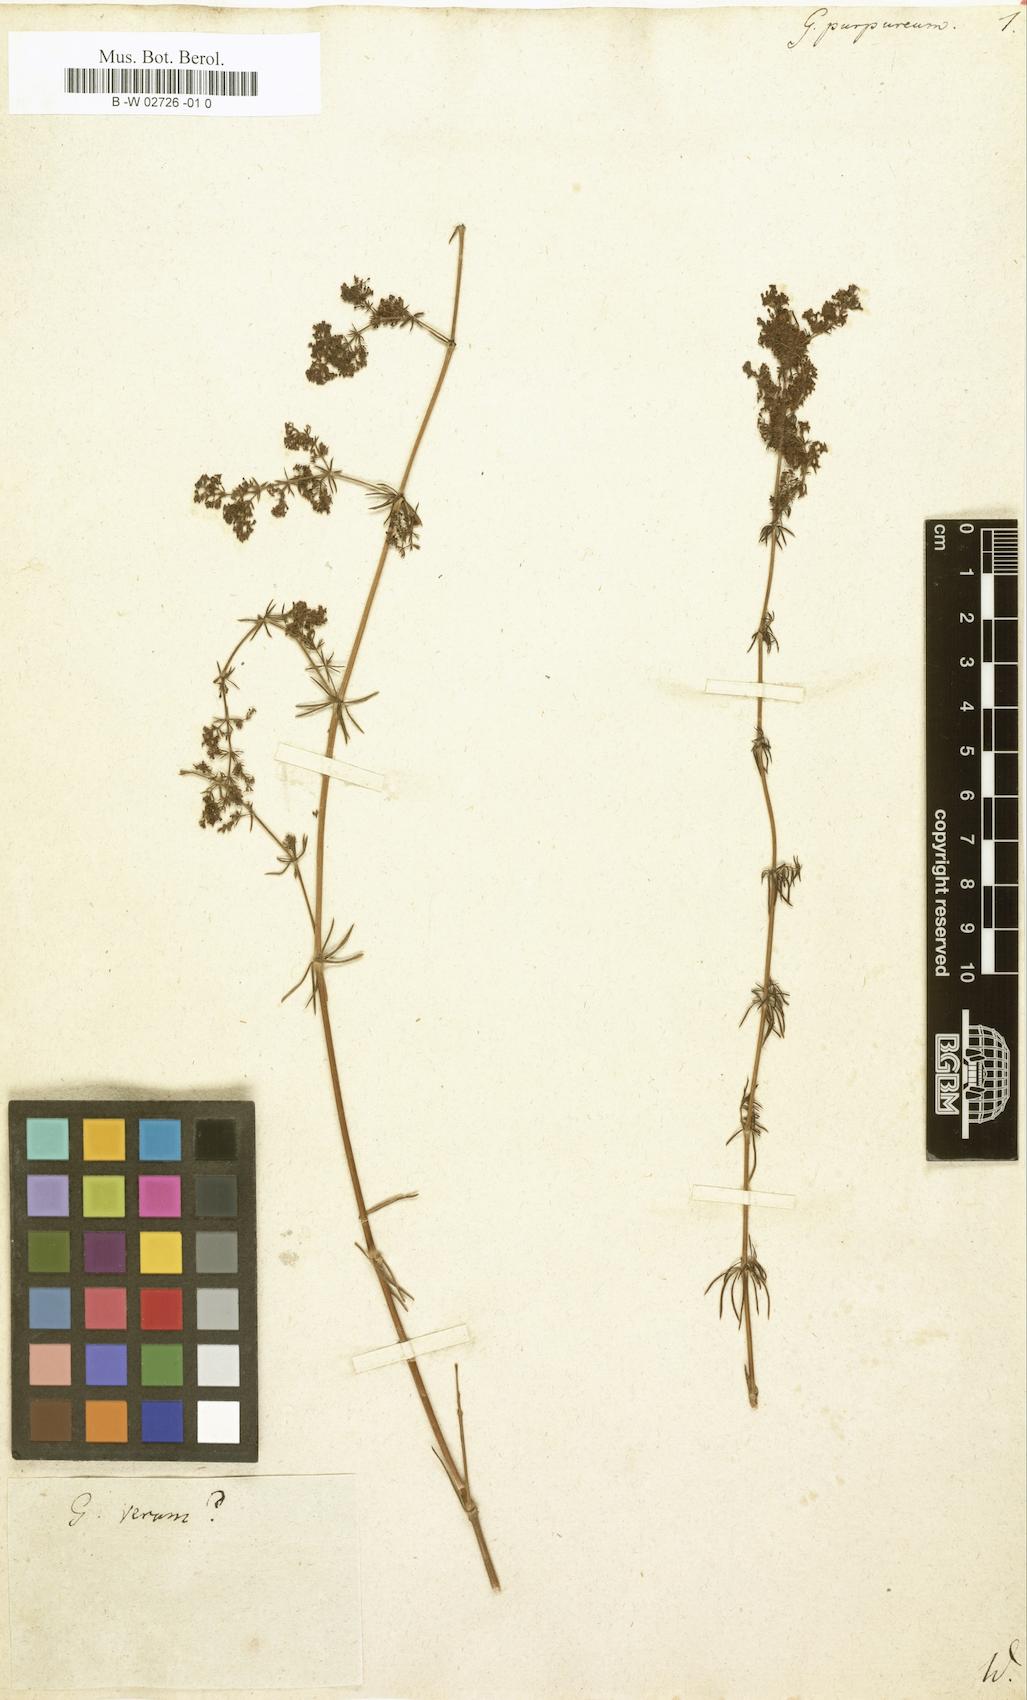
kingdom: Plantae
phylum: Tracheophyta
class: Magnoliopsida
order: Gentianales
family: Rubiaceae
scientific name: Rubiaceae
